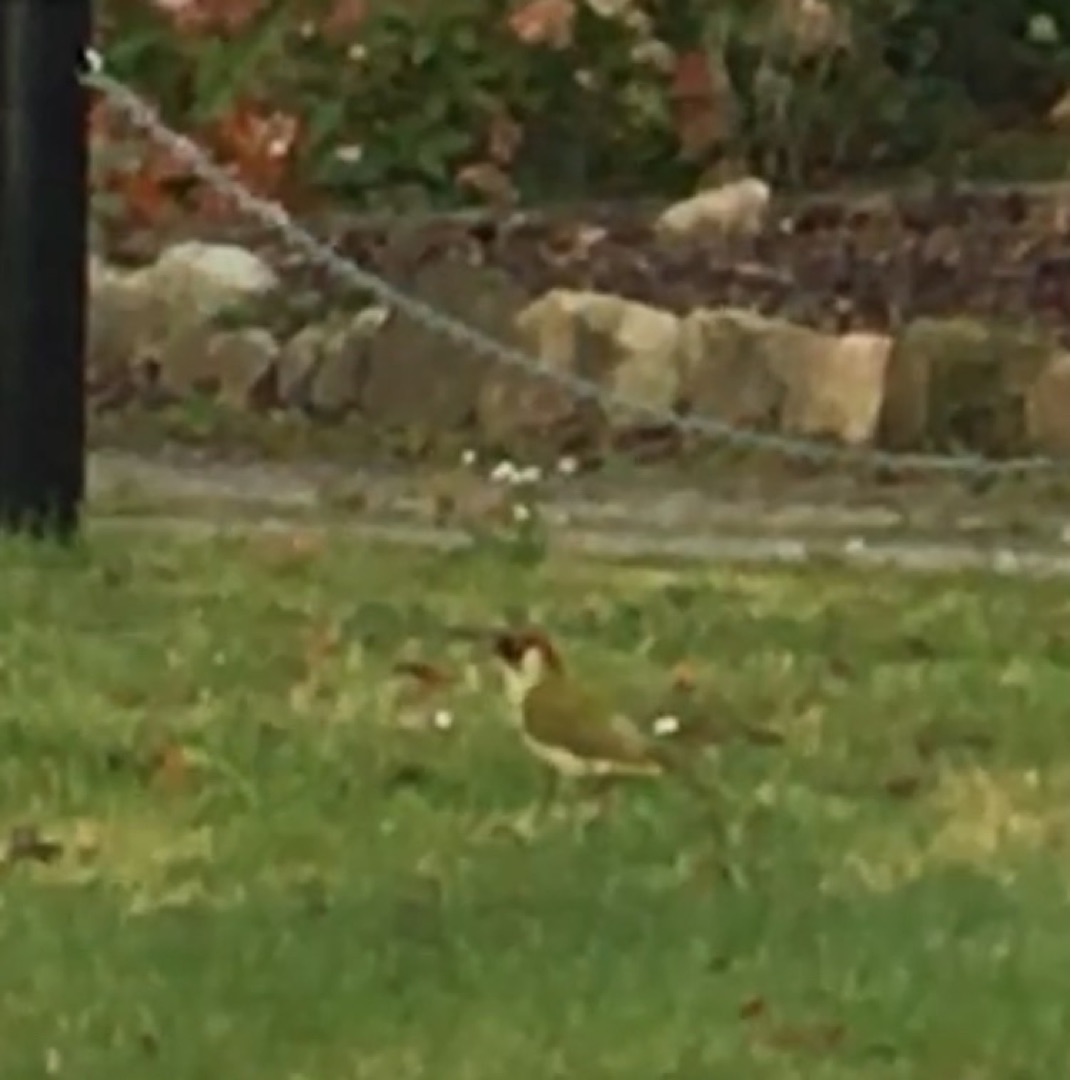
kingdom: Animalia
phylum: Chordata
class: Aves
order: Piciformes
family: Picidae
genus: Picus
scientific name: Picus viridis
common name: Grønspætte
